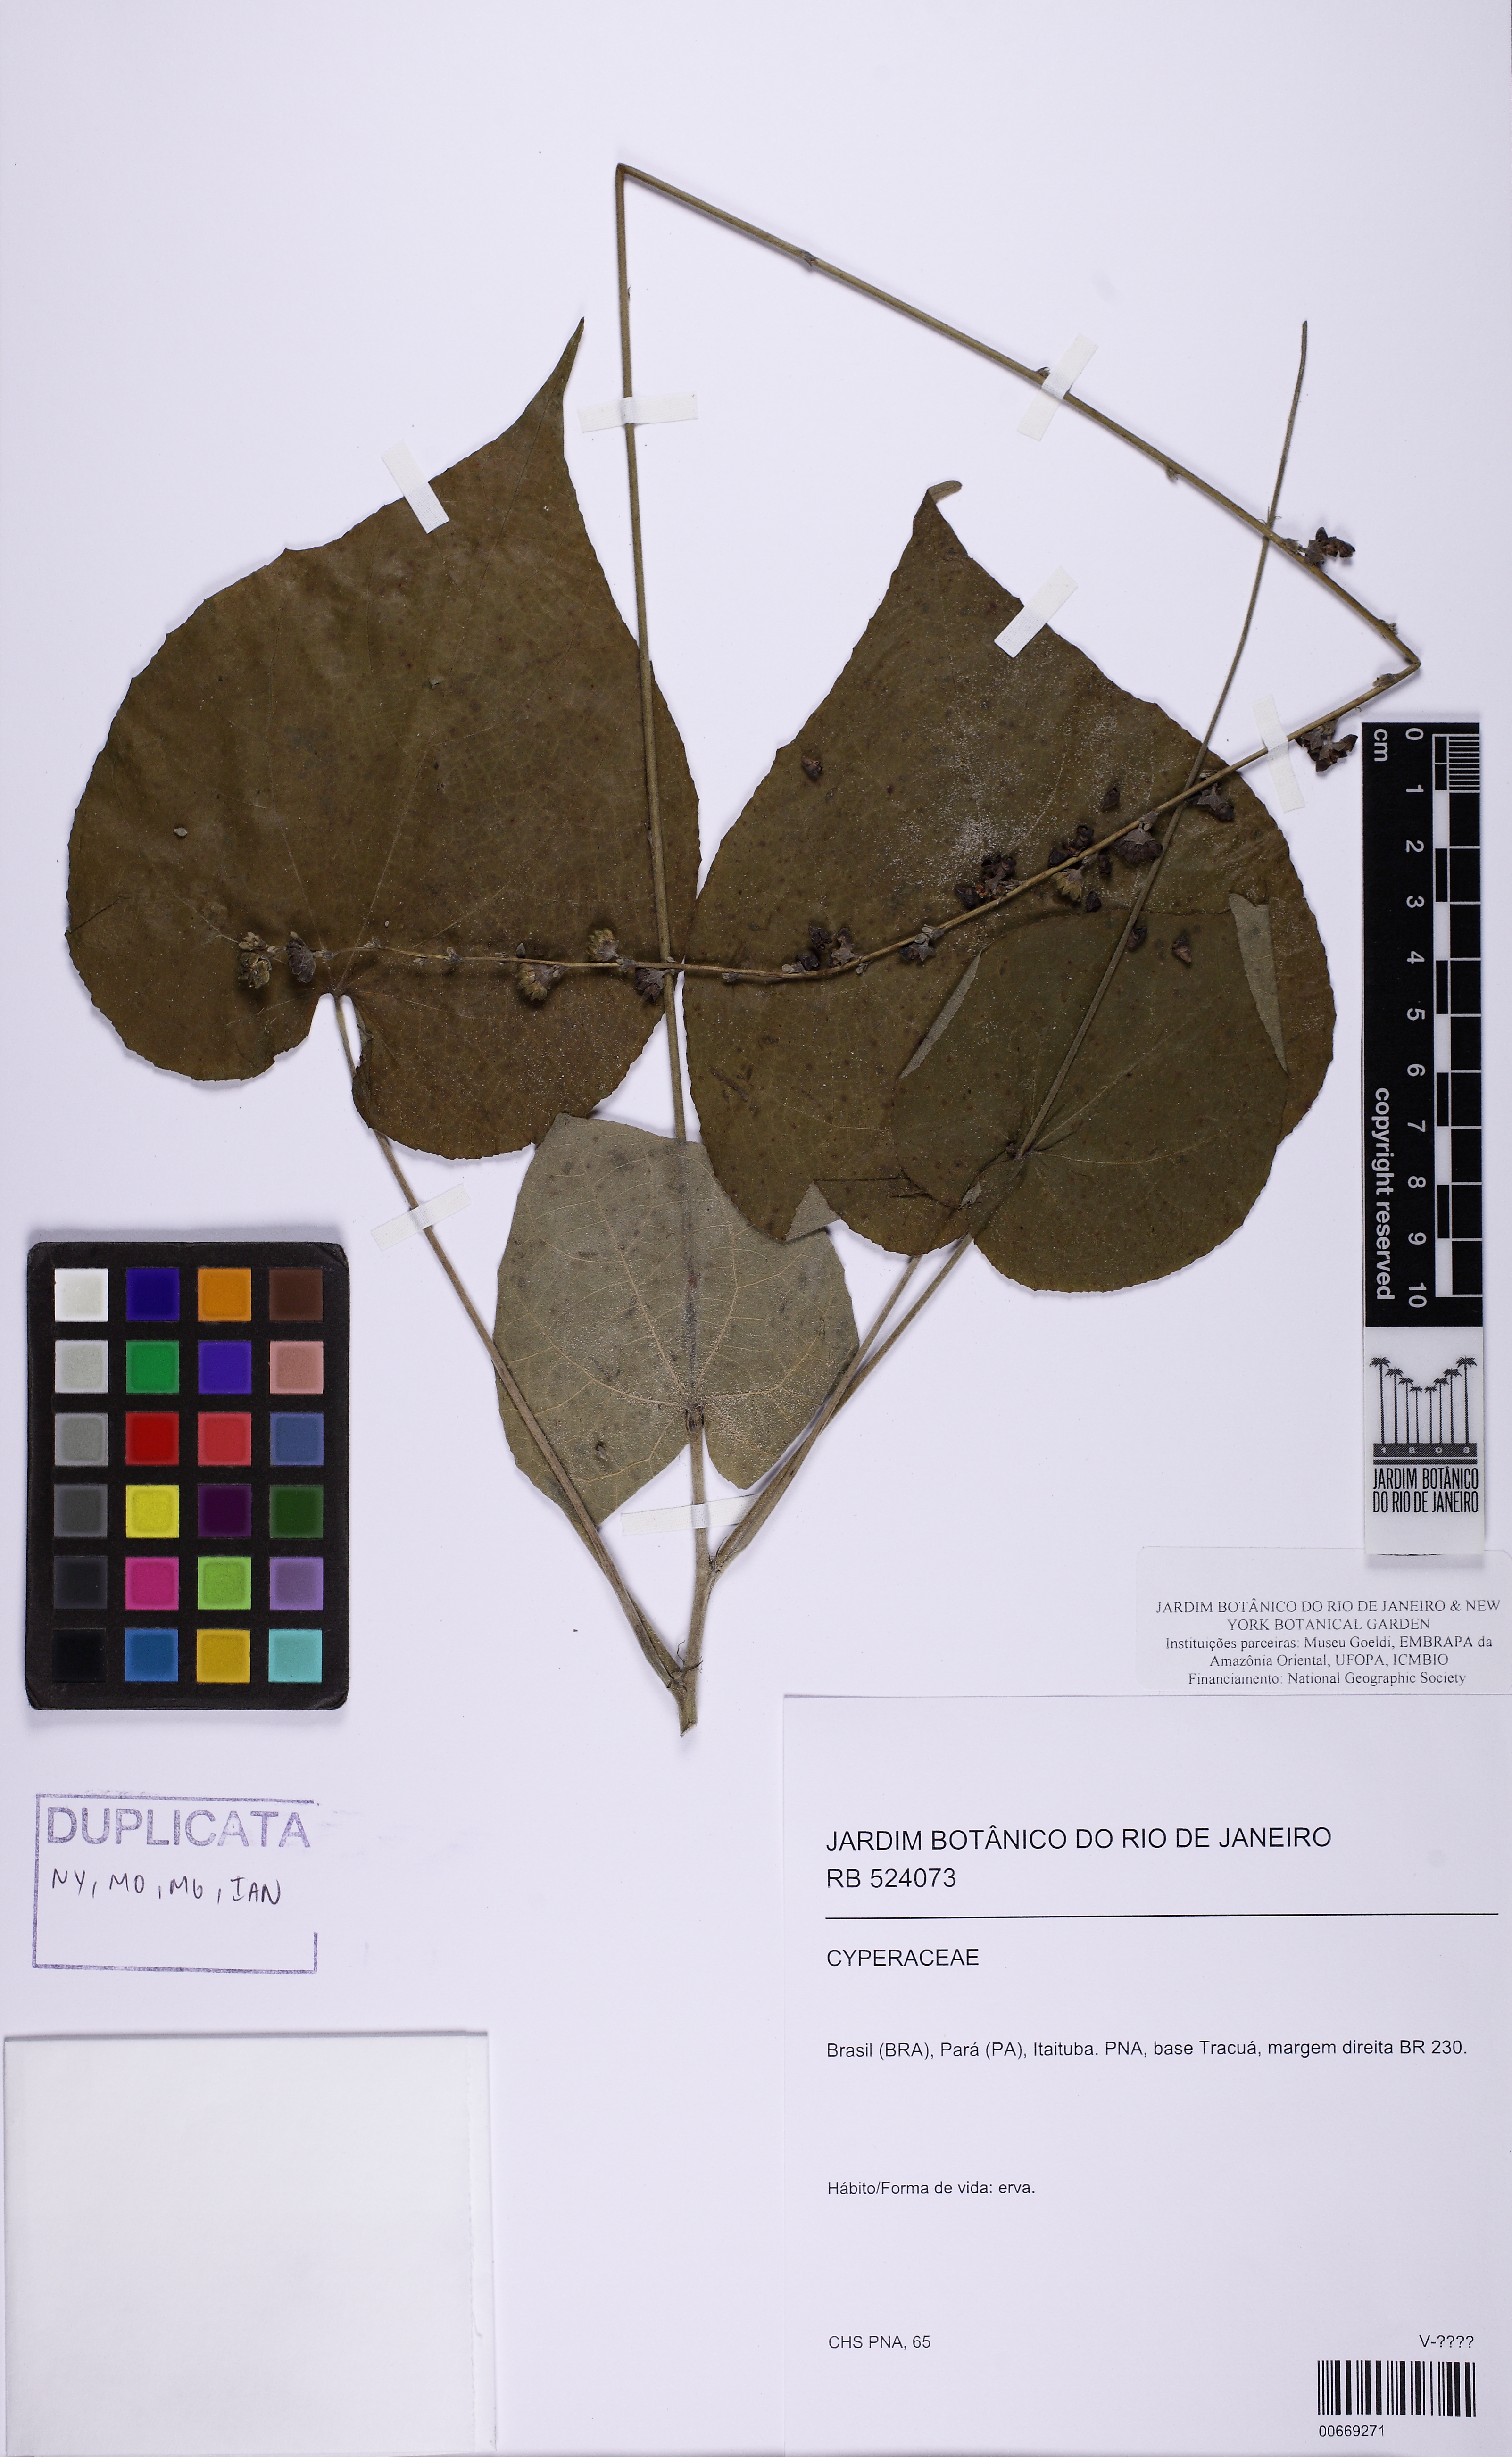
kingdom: Plantae
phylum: Tracheophyta
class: Magnoliopsida
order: Malvales
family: Malvaceae
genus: Allobriquetia
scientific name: Allobriquetia spicata
